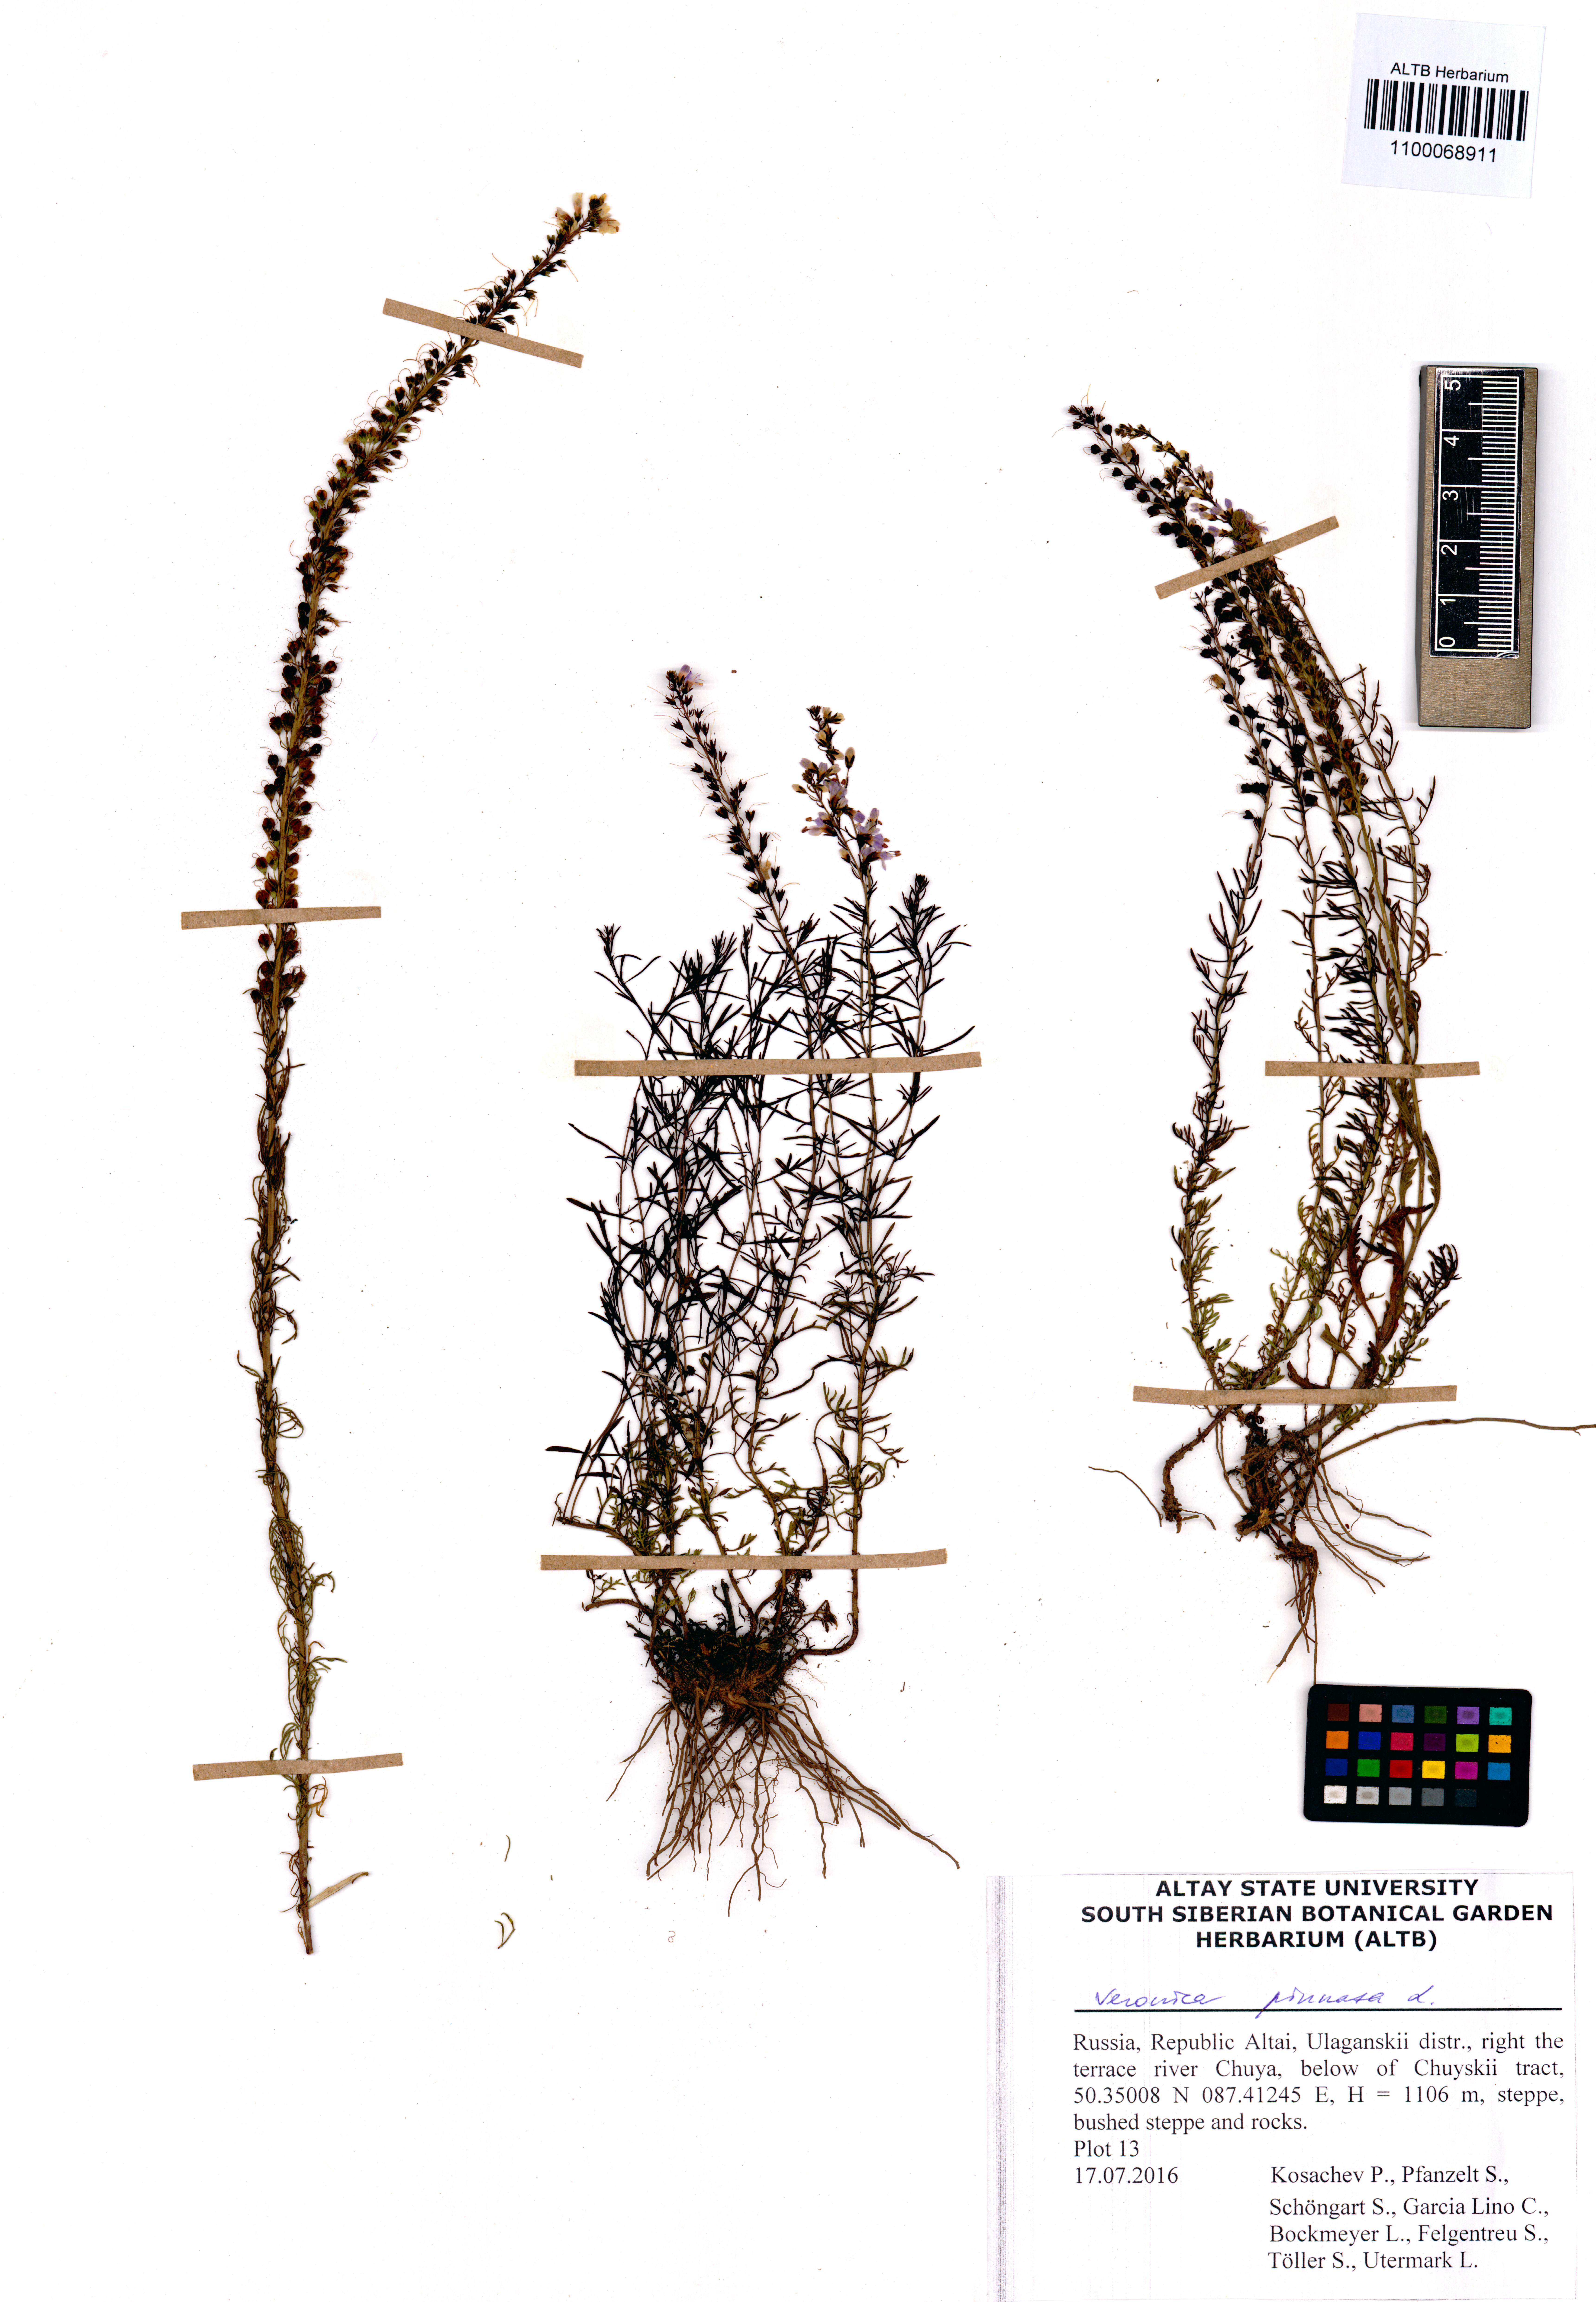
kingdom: Plantae
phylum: Tracheophyta
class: Magnoliopsida
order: Lamiales
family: Plantaginaceae
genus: Veronica
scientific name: Veronica pinnata
